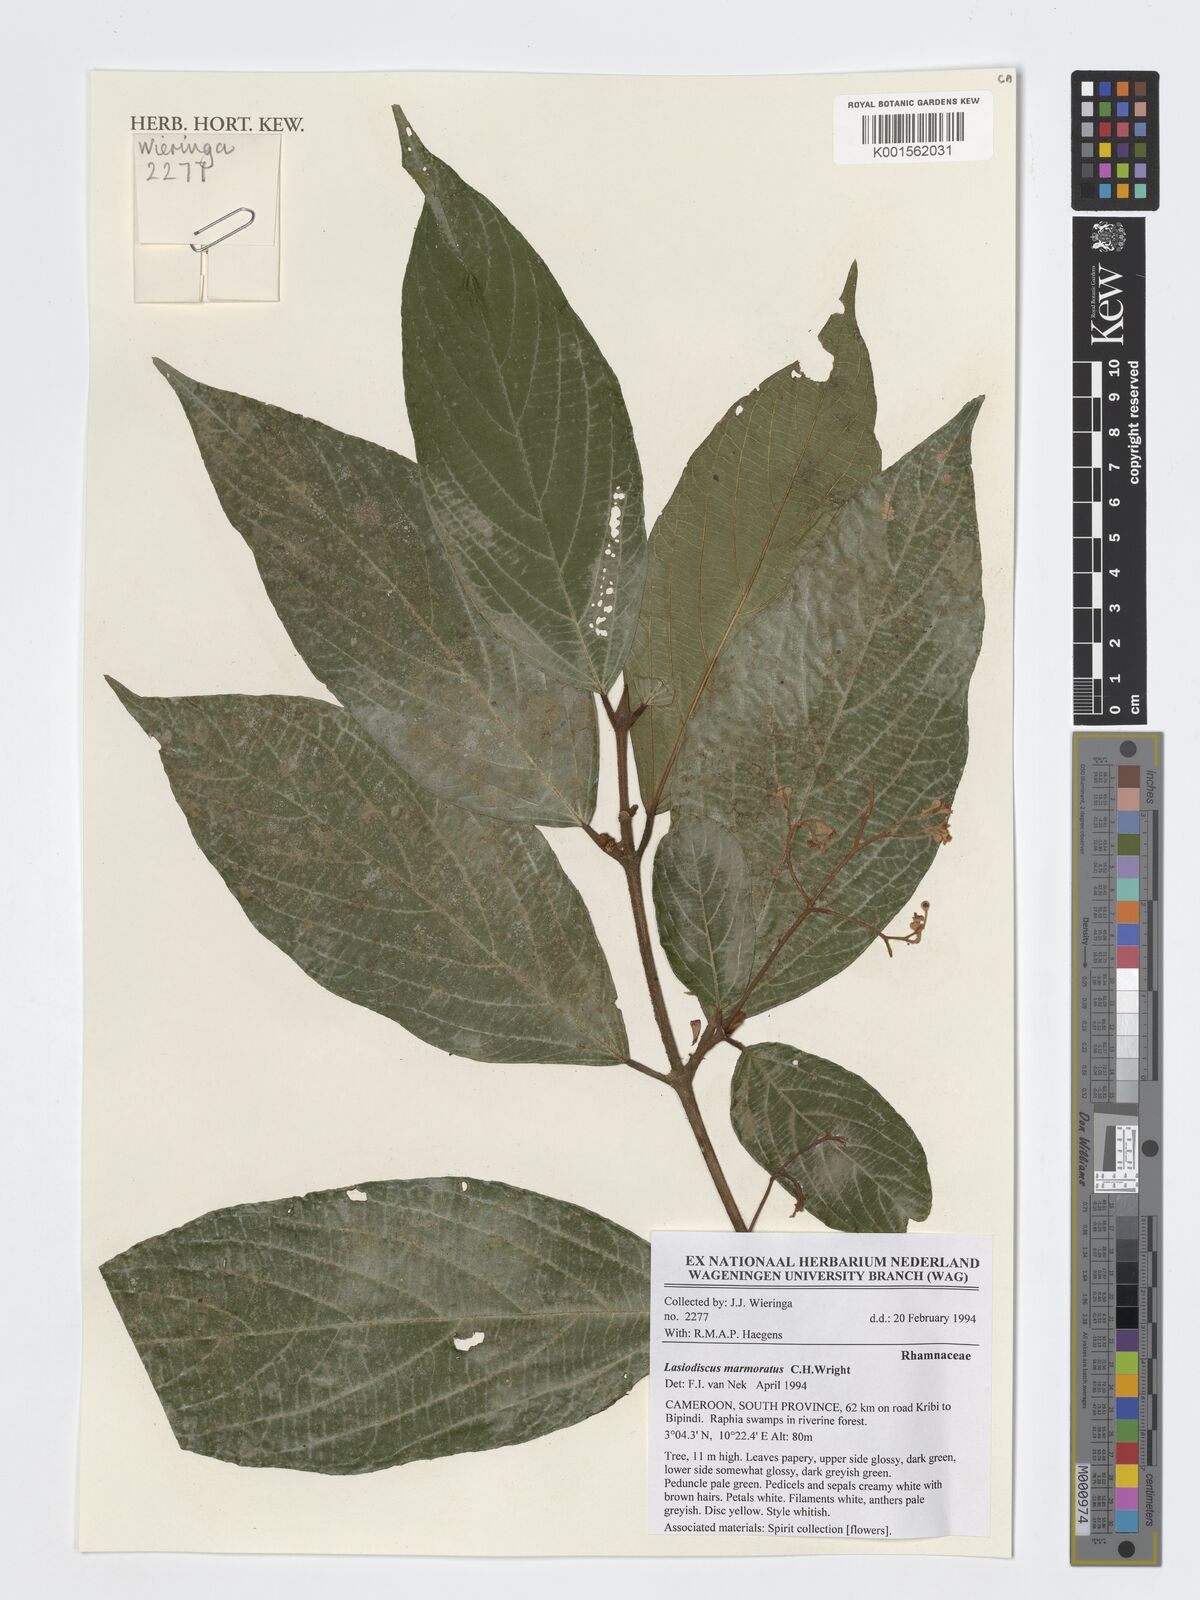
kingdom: Plantae
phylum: Tracheophyta
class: Magnoliopsida
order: Rosales
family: Rhamnaceae
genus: Lasiodiscus
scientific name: Lasiodiscus marmoratus
